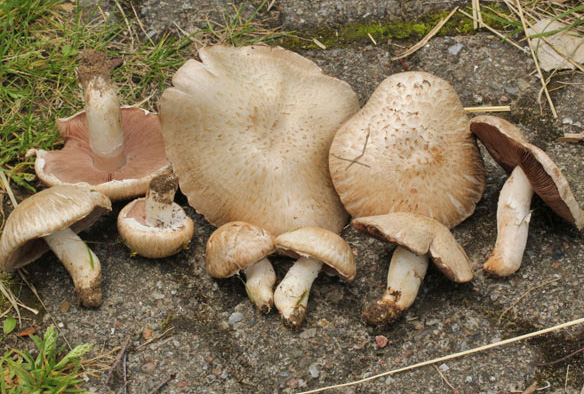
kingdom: Fungi
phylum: Basidiomycota
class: Agaricomycetes
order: Agaricales
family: Agaricaceae
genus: Agaricus
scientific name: Agaricus litoralis
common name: kyst-champignon
